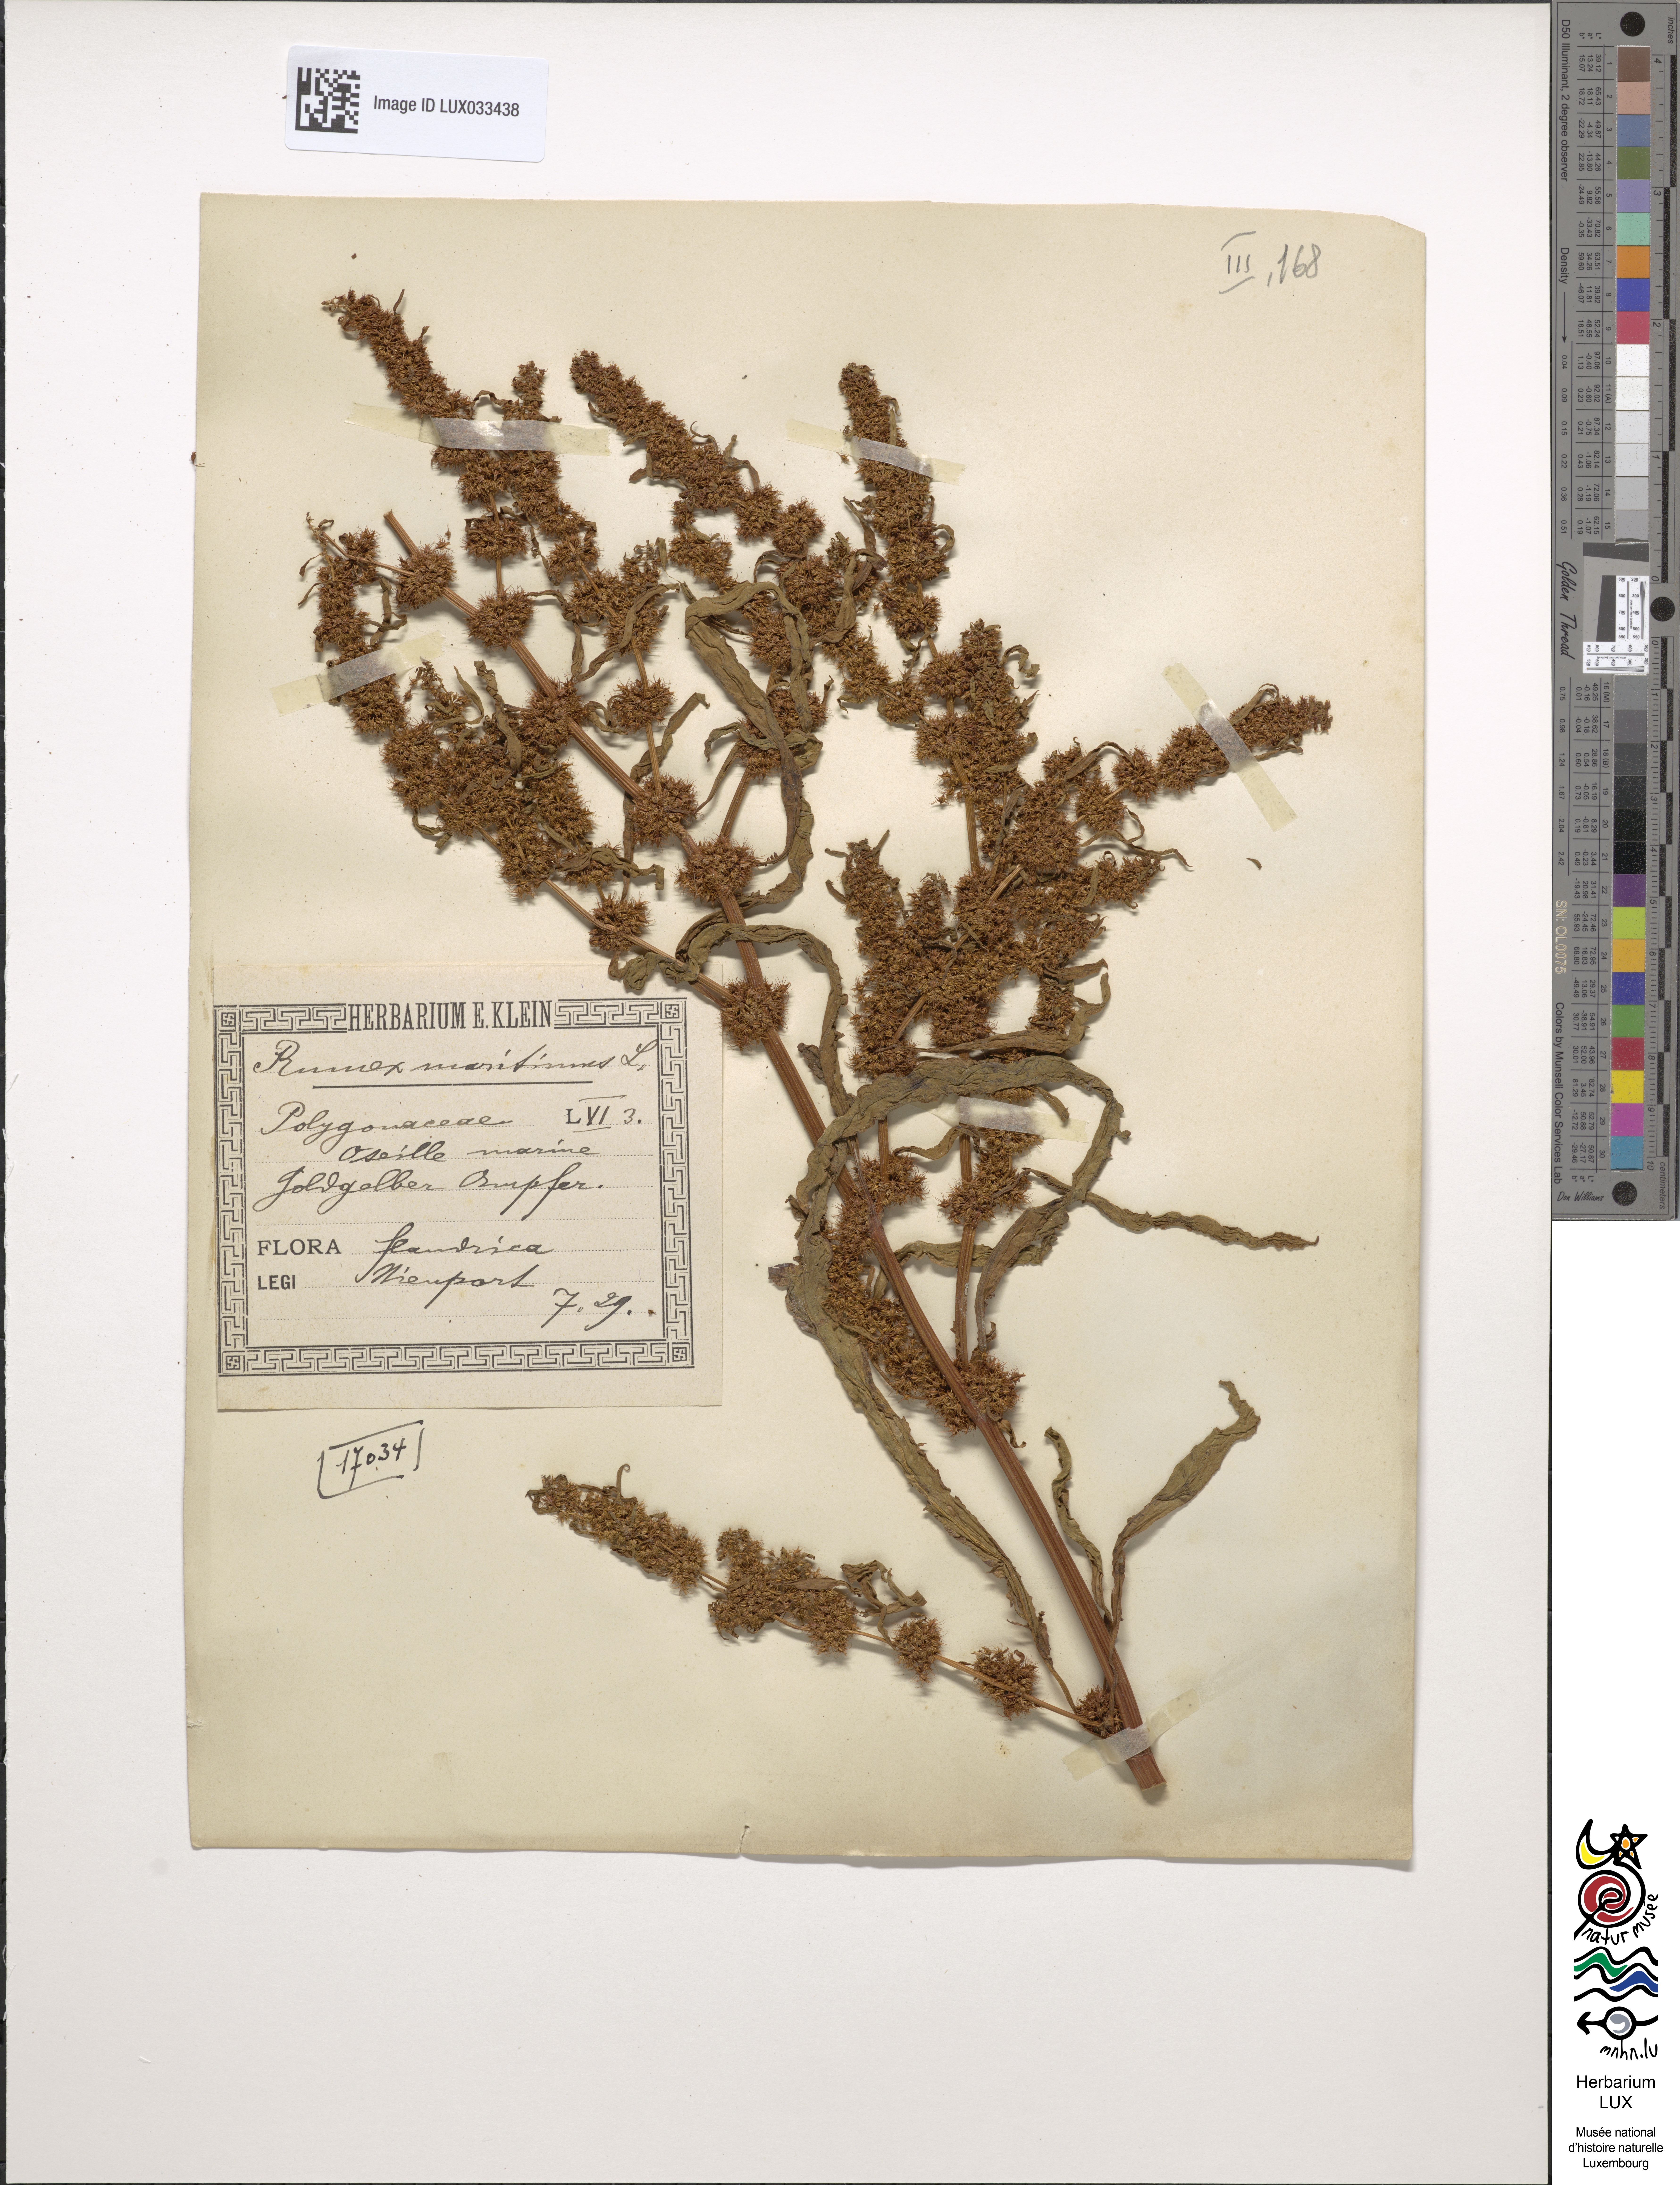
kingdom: Plantae
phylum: Tracheophyta
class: Magnoliopsida
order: Caryophyllales
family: Polygonaceae
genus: Rumex
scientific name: Rumex maritimus
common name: Golden dock
